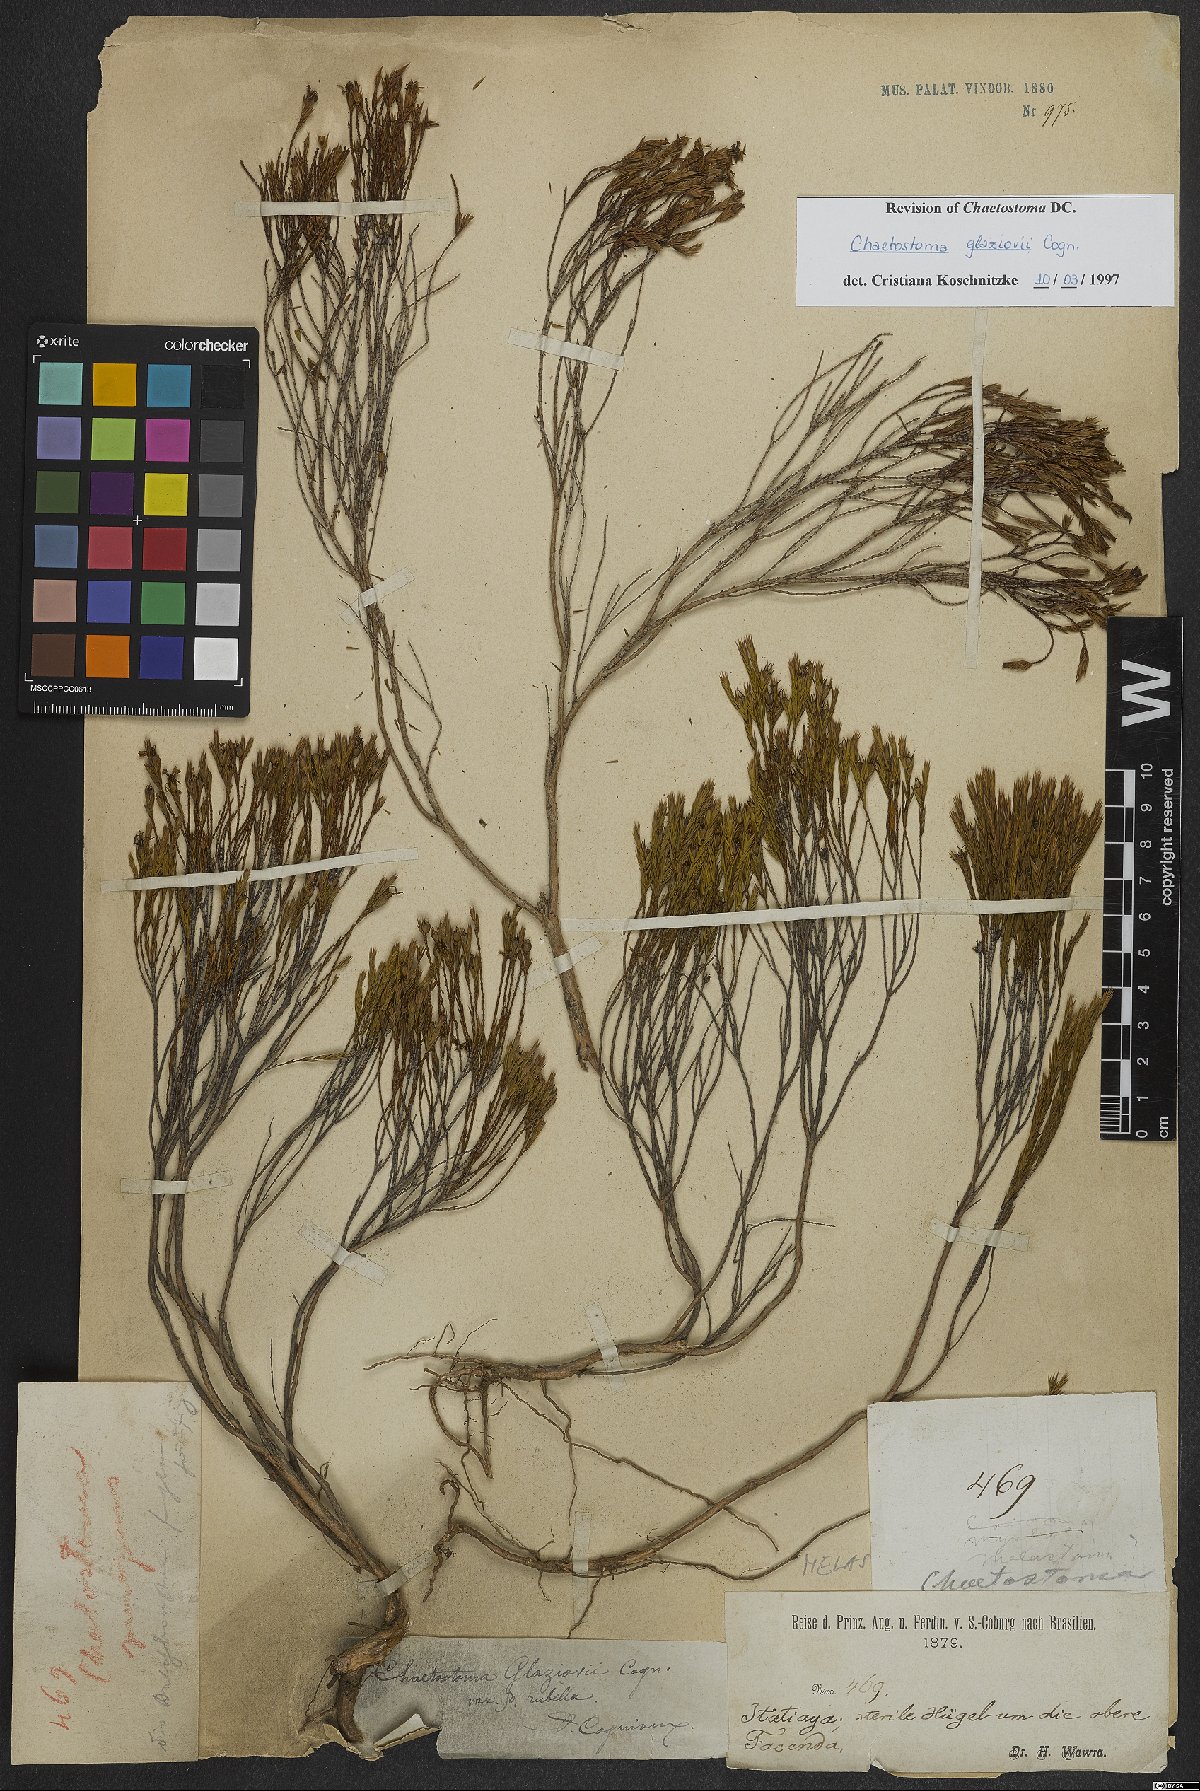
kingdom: Plantae
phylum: Tracheophyta
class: Magnoliopsida
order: Myrtales
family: Melastomataceae
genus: Microlicia
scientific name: Microlicia glaziovii
